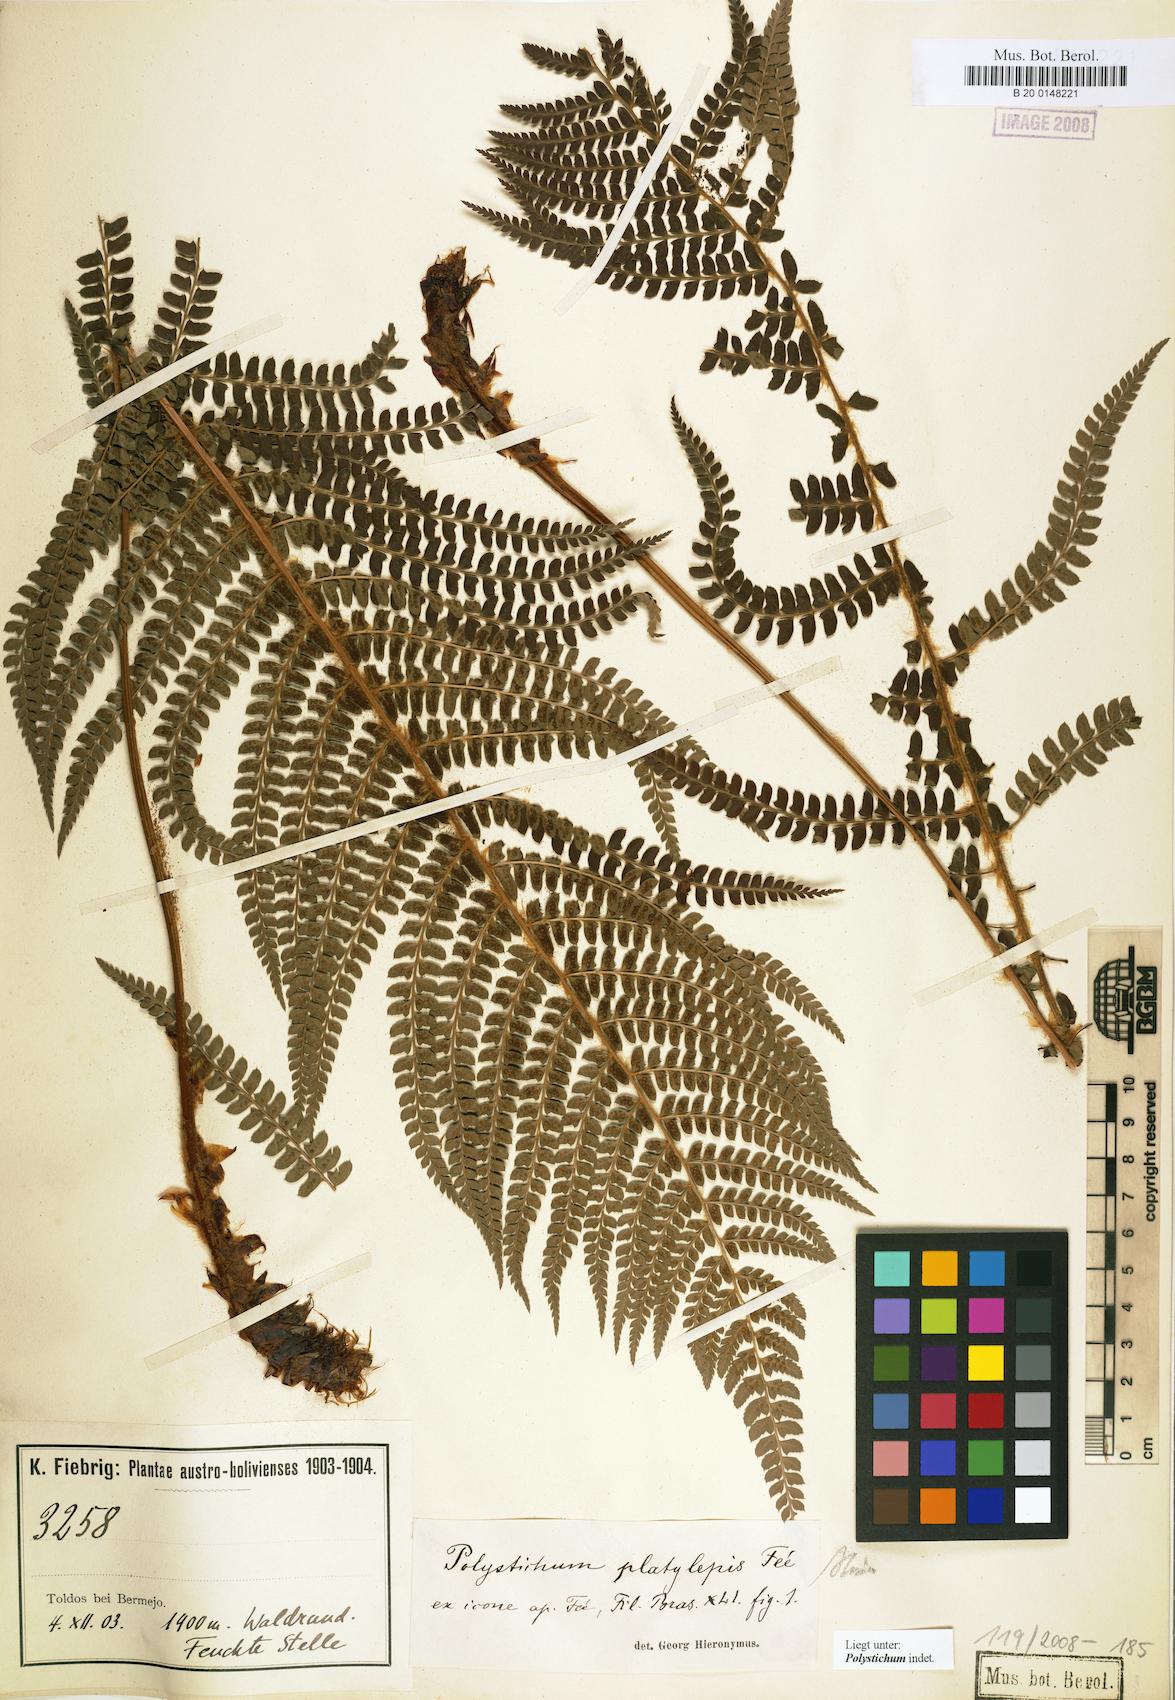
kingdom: Plantae
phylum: Tracheophyta
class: Polypodiopsida
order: Polypodiales
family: Dryopteridaceae
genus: Polystichum
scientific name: Polystichum
